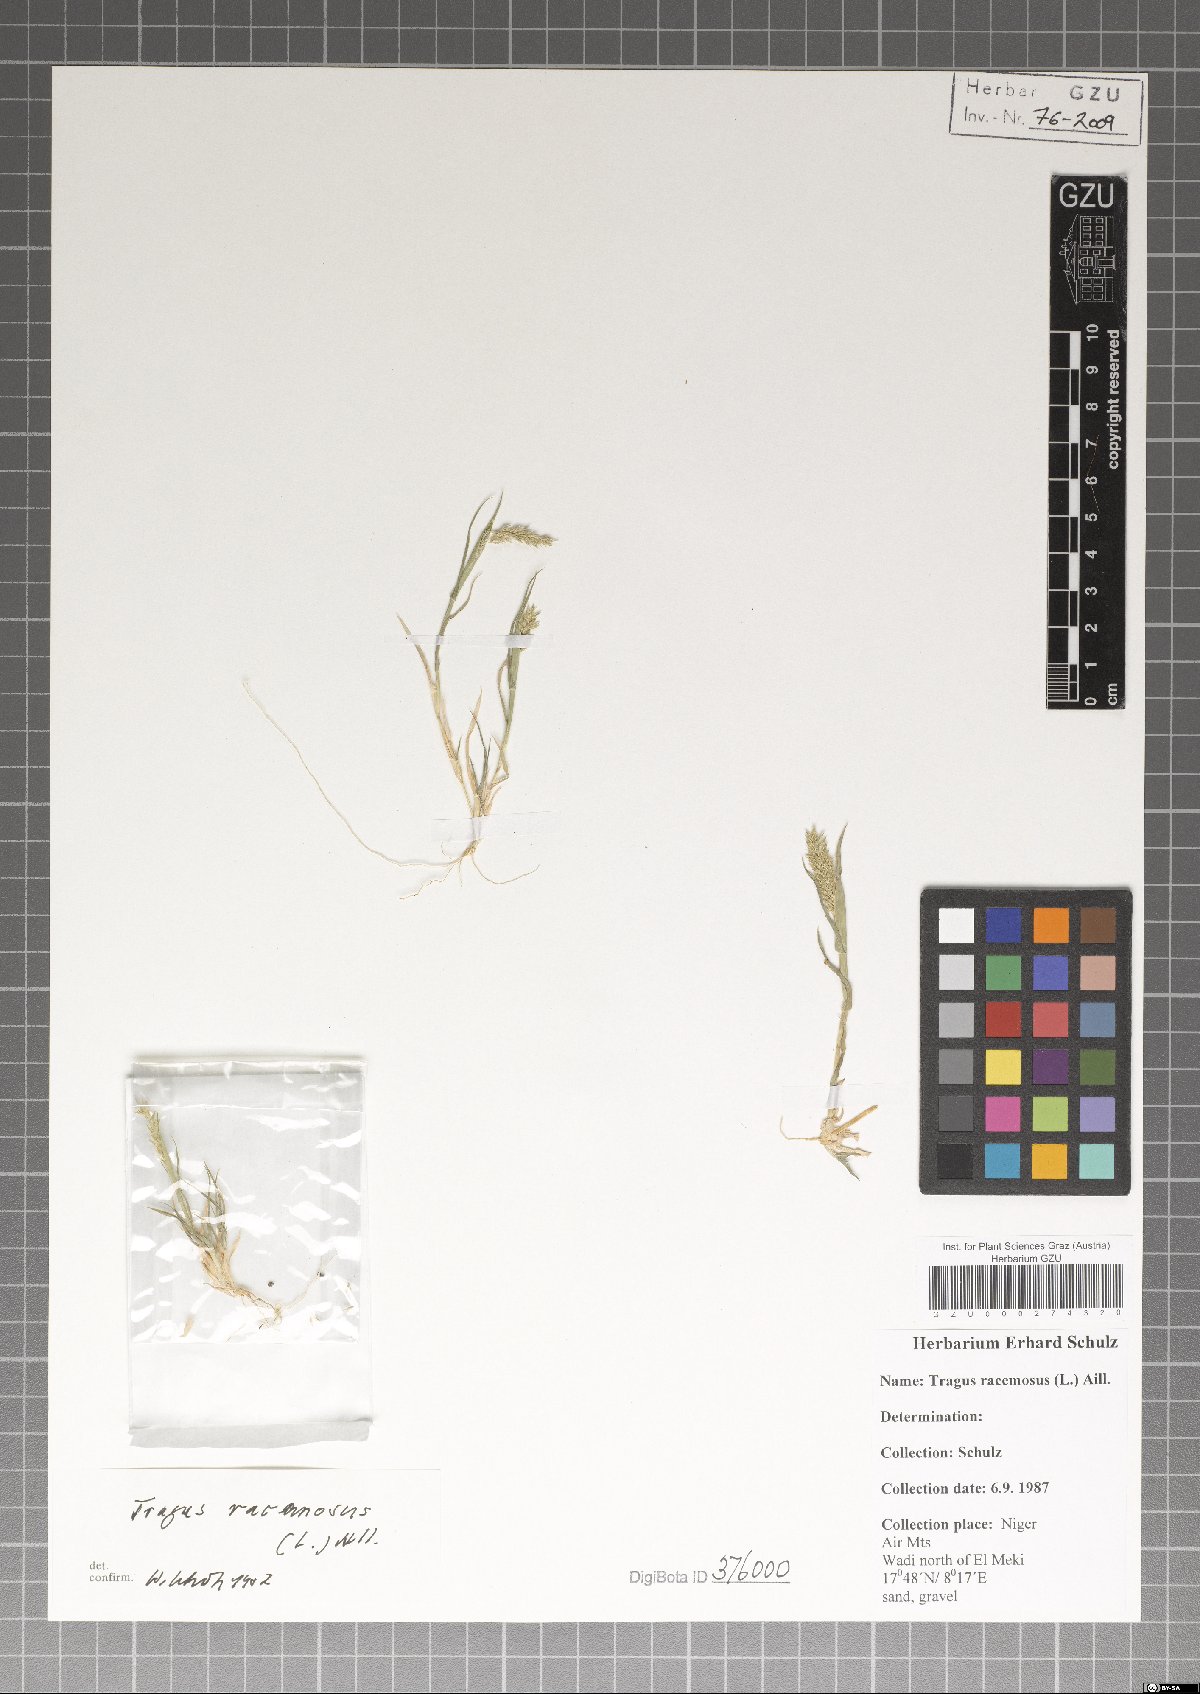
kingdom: Plantae
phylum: Tracheophyta
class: Liliopsida
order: Poales
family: Poaceae
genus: Tragus
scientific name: Tragus racemosus
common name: European bur-grass
